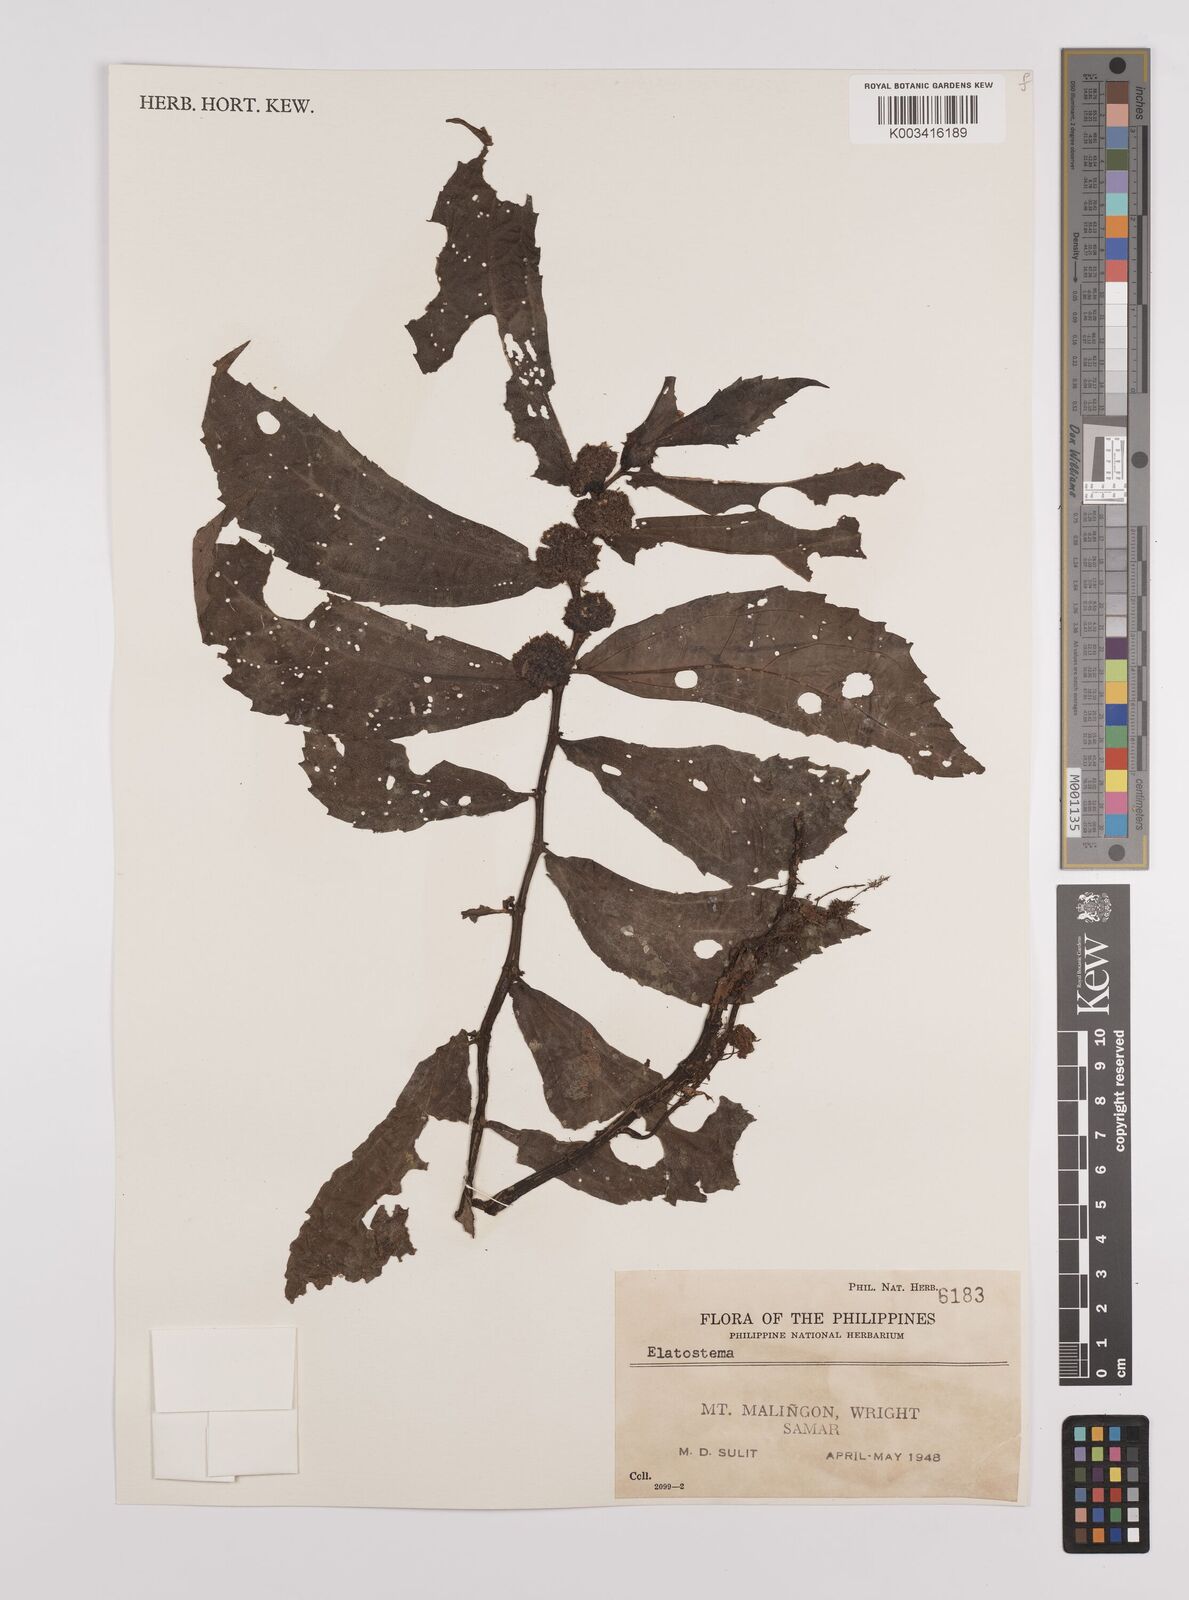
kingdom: Plantae
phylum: Tracheophyta
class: Magnoliopsida
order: Rosales
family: Urticaceae
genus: Elatostema
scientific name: Elatostema
